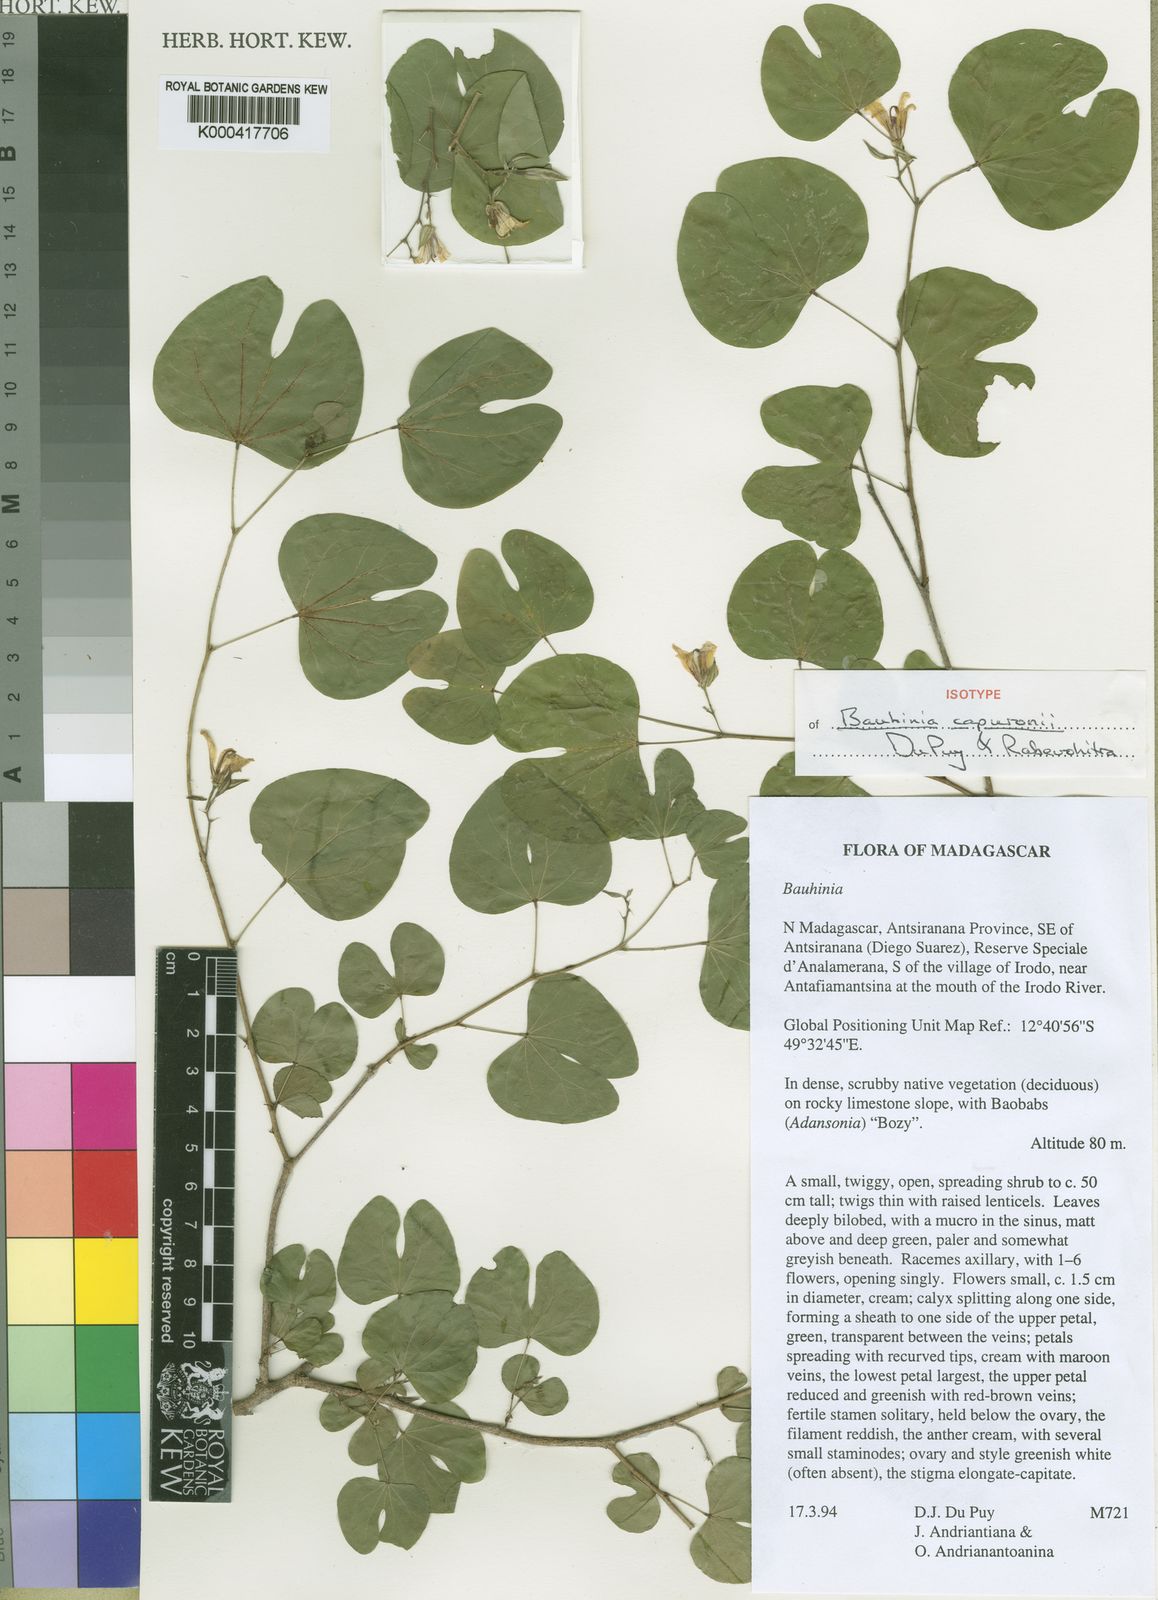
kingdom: Plantae
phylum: Tracheophyta
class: Magnoliopsida
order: Fabales
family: Fabaceae
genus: Bauhinia
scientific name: Bauhinia capuronii
